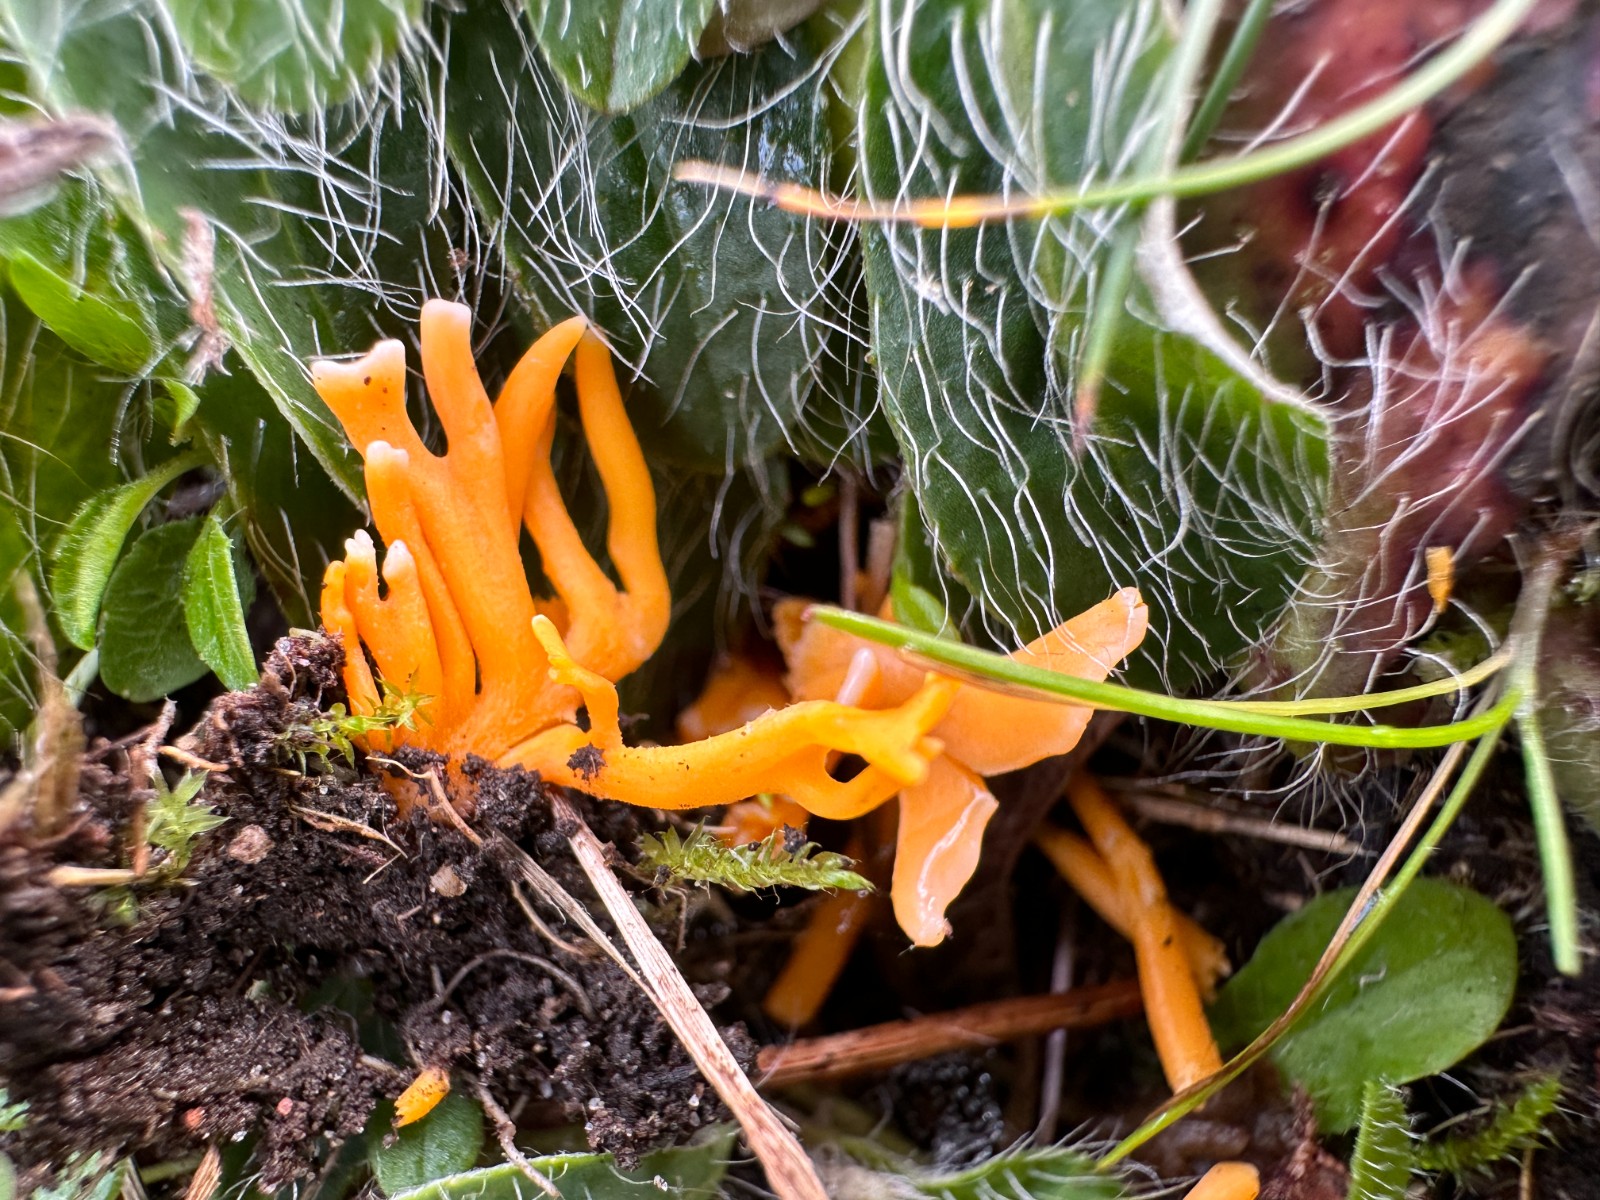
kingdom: Fungi
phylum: Basidiomycota
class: Agaricomycetes
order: Agaricales
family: Clavariaceae
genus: Clavulinopsis
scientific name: Clavulinopsis luteoalba
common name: abrikos-køllesvamp
